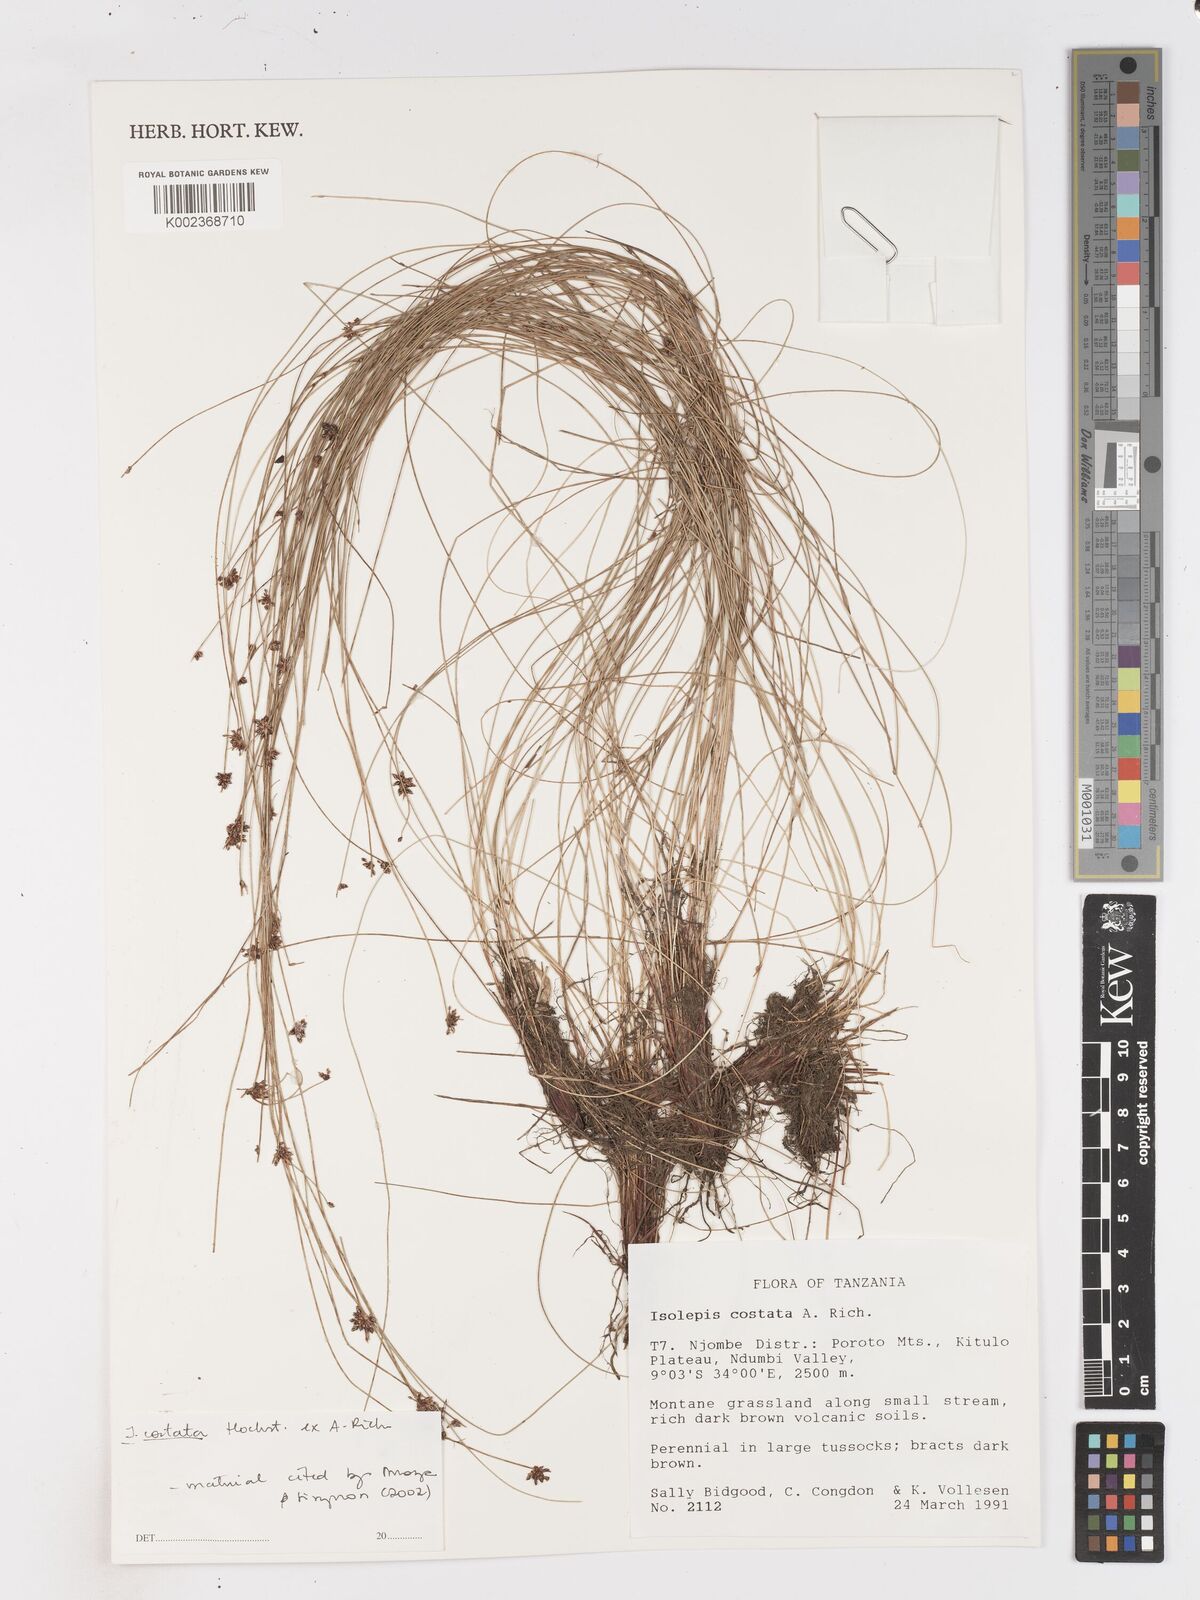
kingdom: Plantae
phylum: Tracheophyta
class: Liliopsida
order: Poales
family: Cyperaceae
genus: Isolepis
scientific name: Isolepis costata
